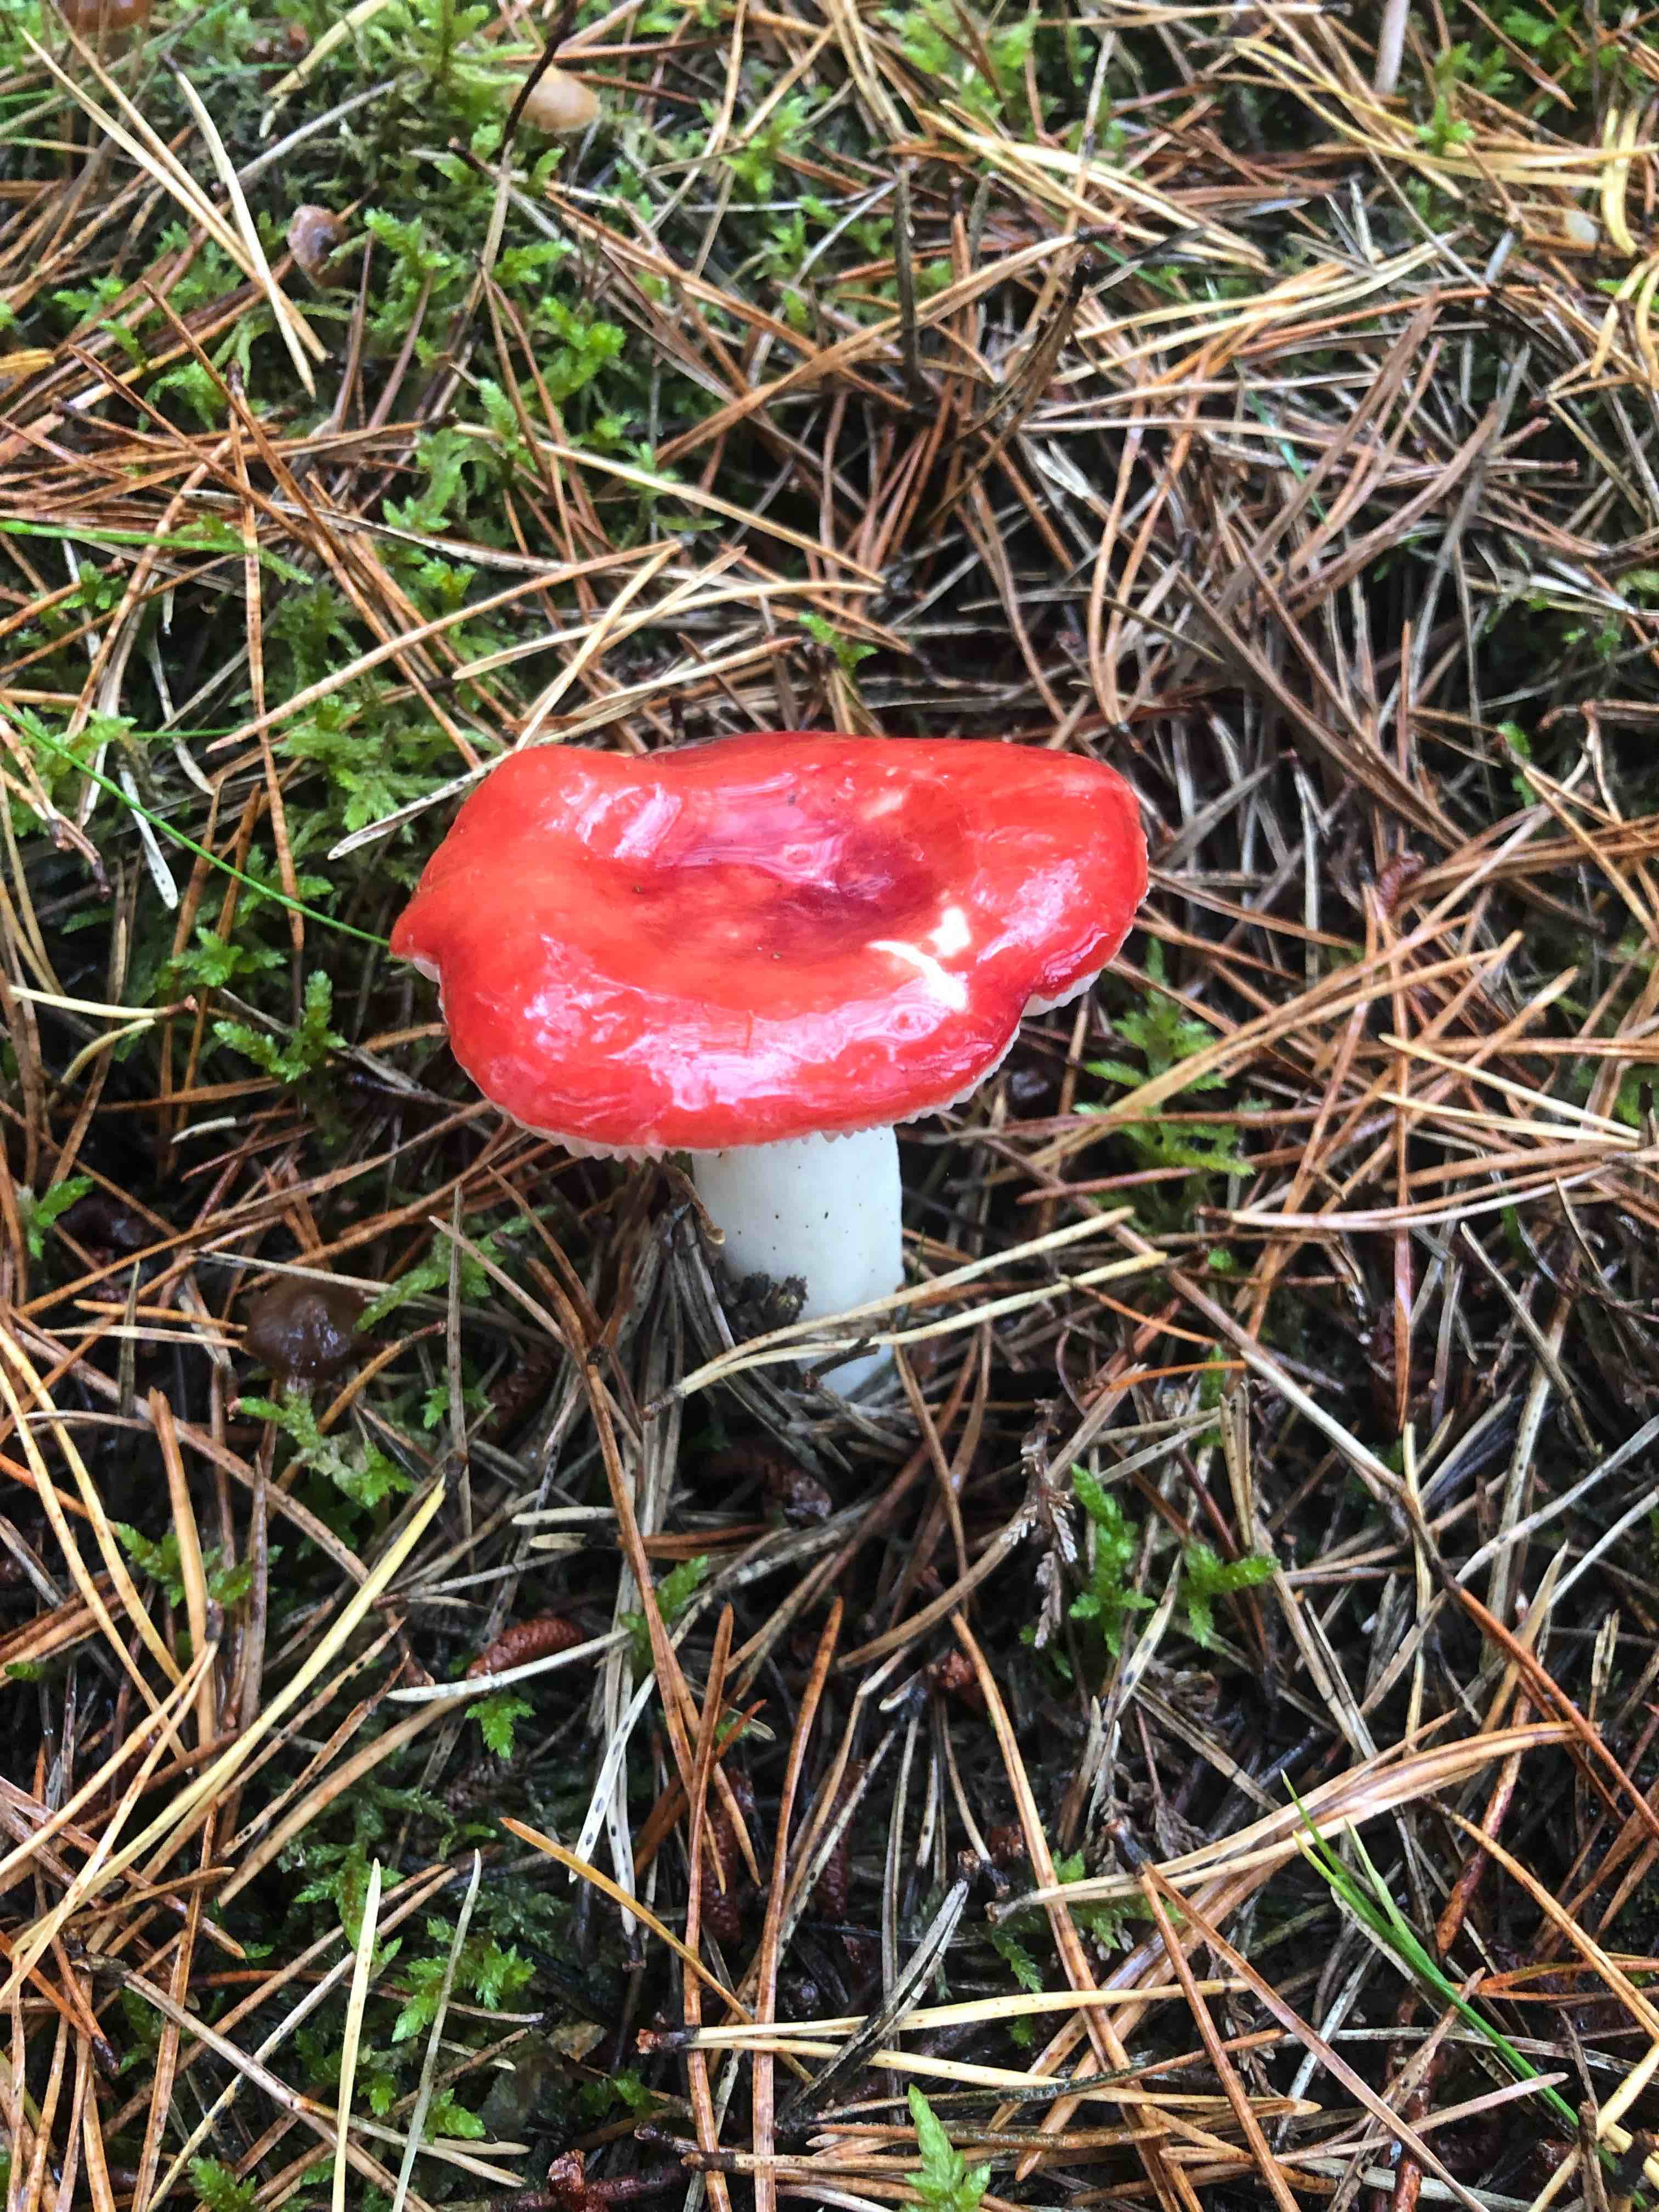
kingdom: Fungi
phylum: Basidiomycota
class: Agaricomycetes
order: Russulales
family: Russulaceae
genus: Russula
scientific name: Russula
